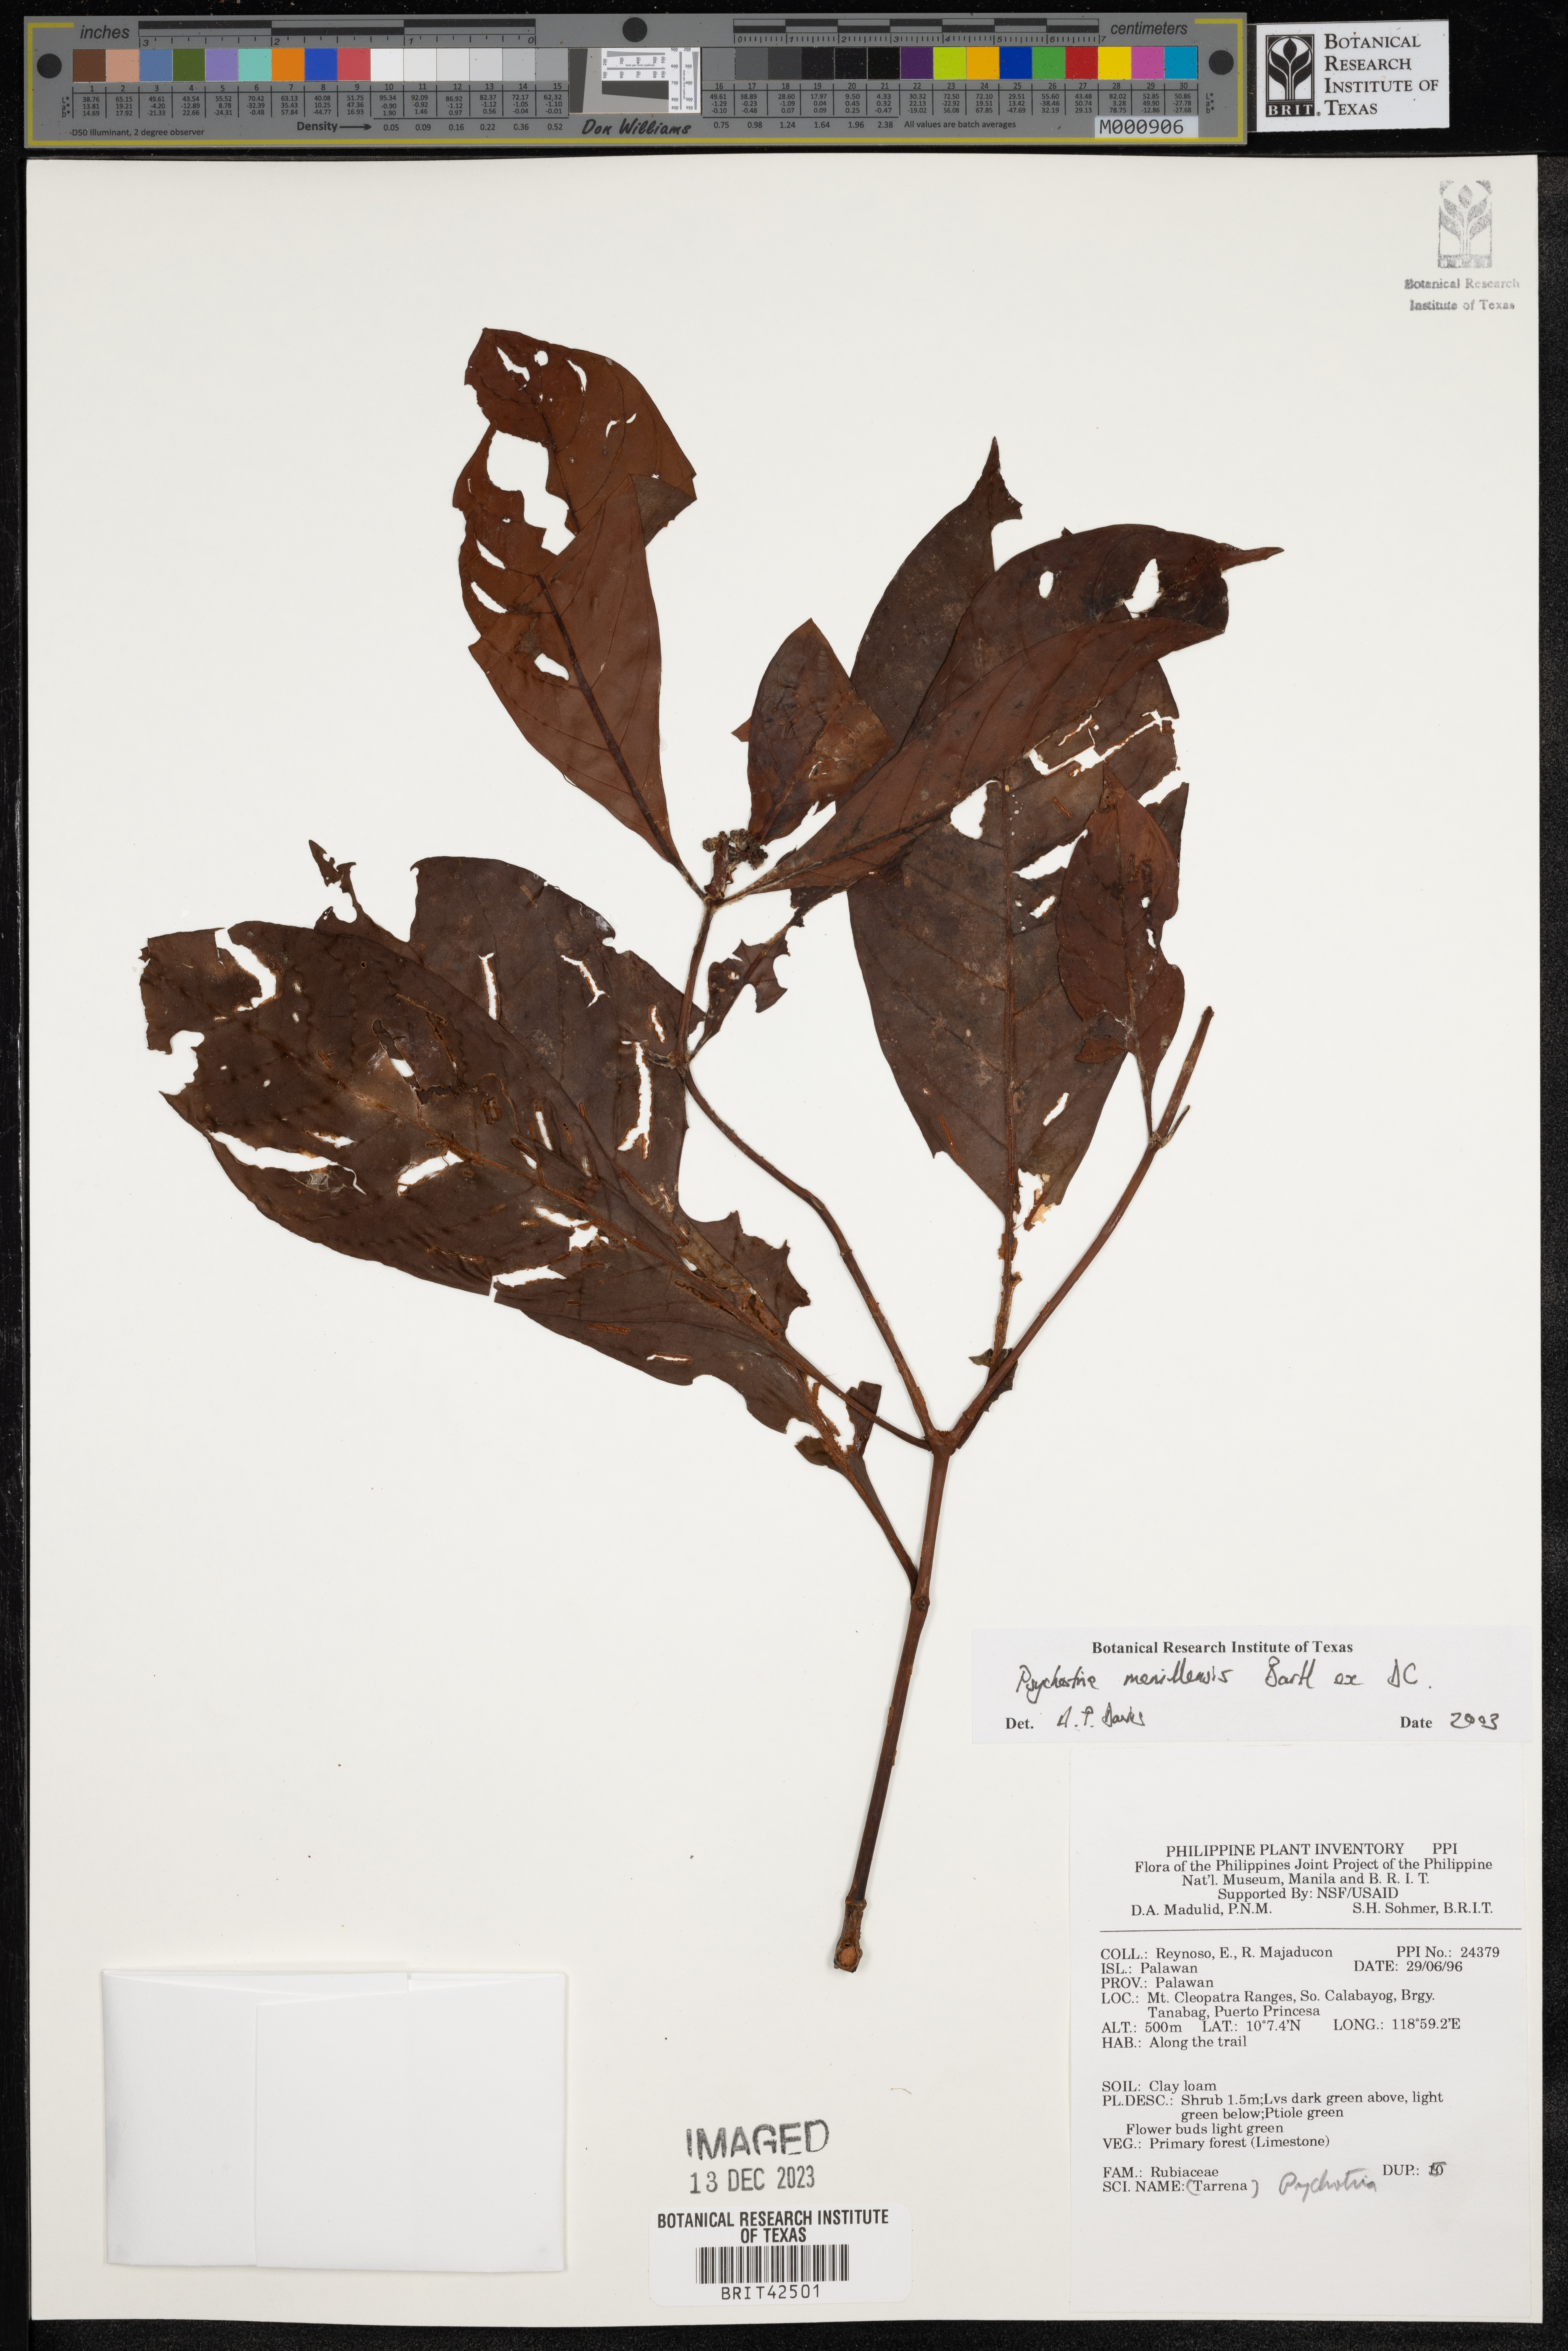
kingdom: Plantae
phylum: Tracheophyta
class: Magnoliopsida
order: Gentianales
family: Rubiaceae
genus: Psychotria
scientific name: Psychotria manillensis
